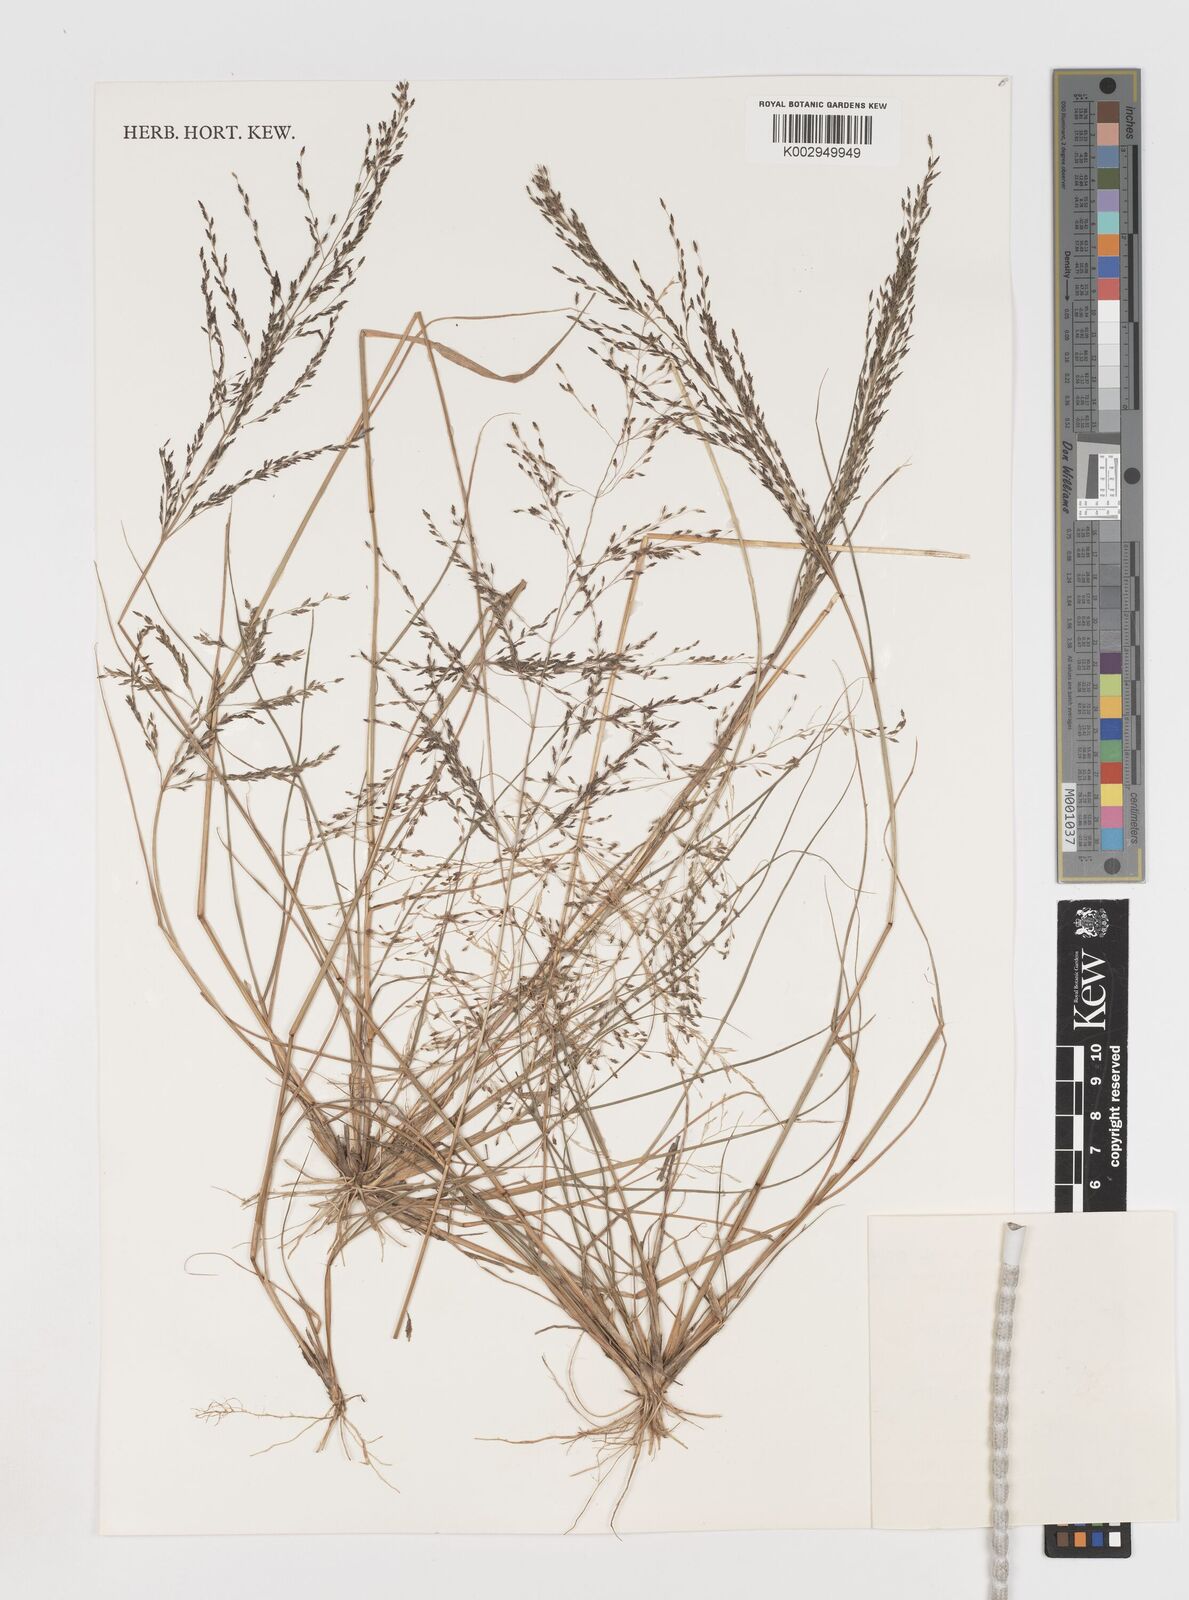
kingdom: Plantae
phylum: Tracheophyta
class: Liliopsida
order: Poales
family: Poaceae
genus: Eragrostis
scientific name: Eragrostis
